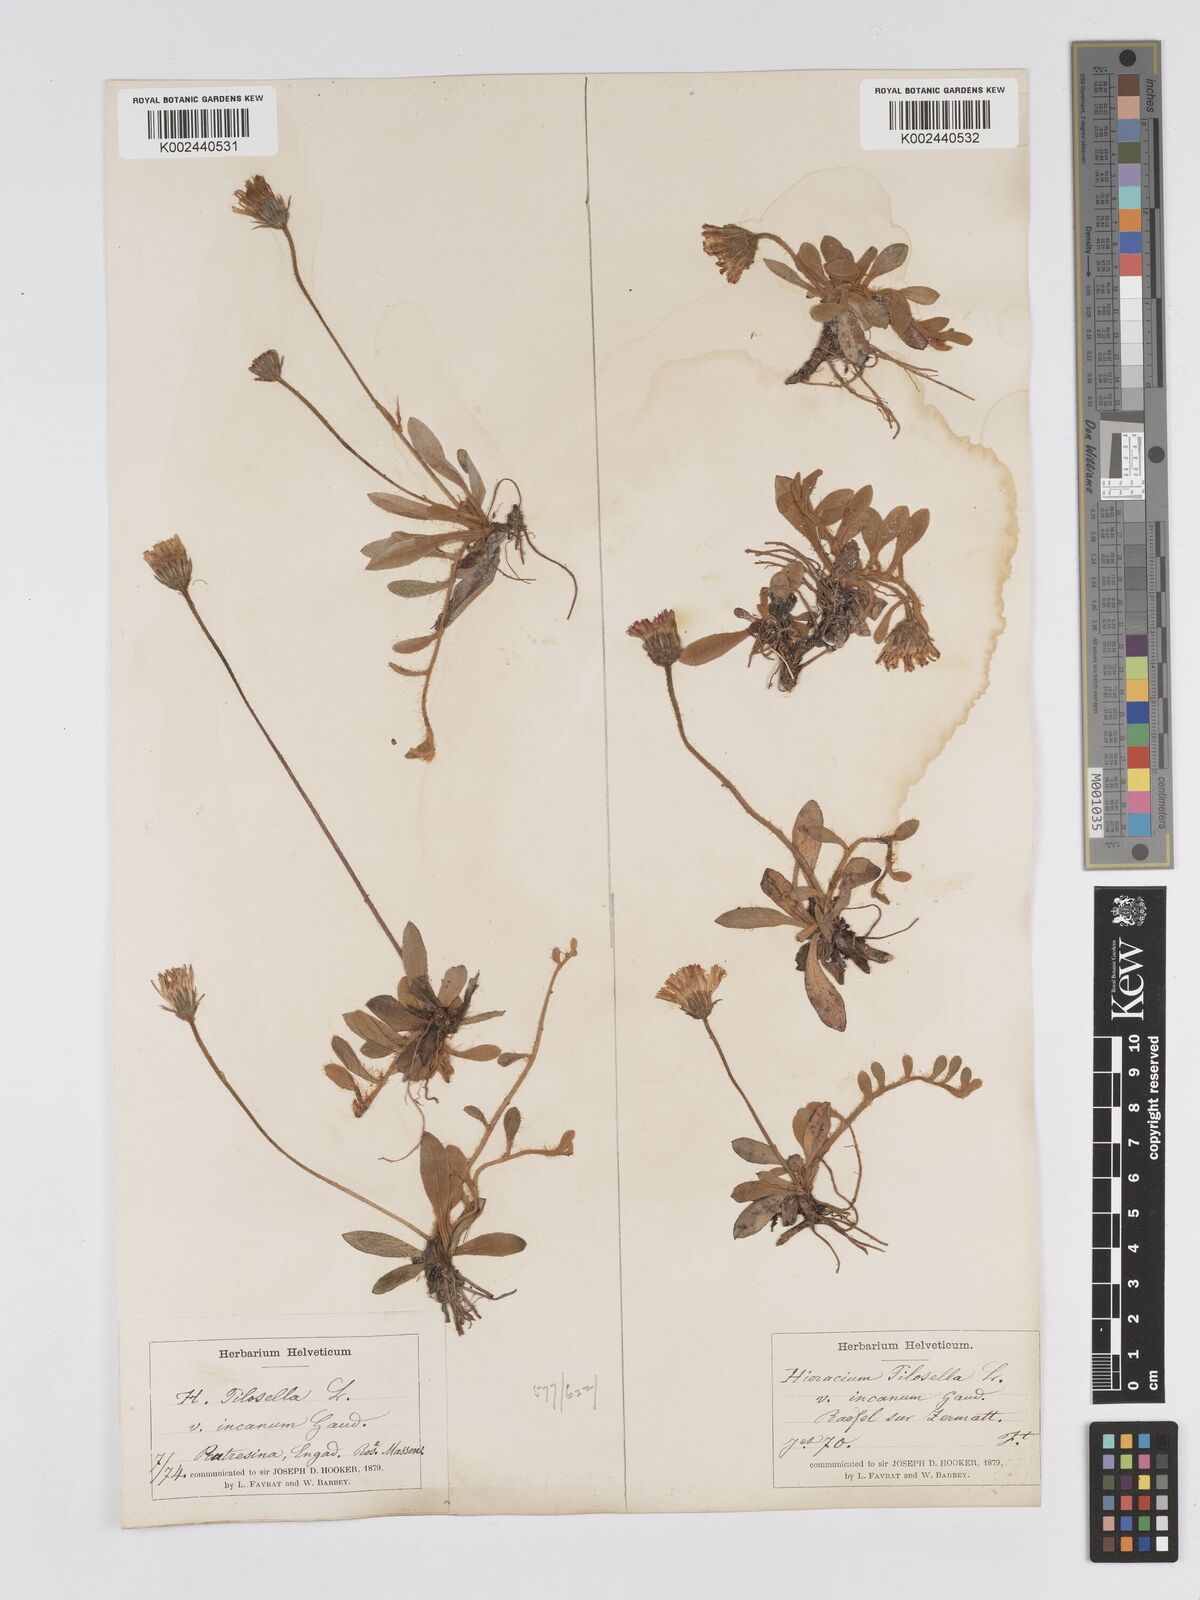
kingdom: Plantae
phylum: Tracheophyta
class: Magnoliopsida
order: Asterales
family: Asteraceae
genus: Pilosella
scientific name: Pilosella velutina
